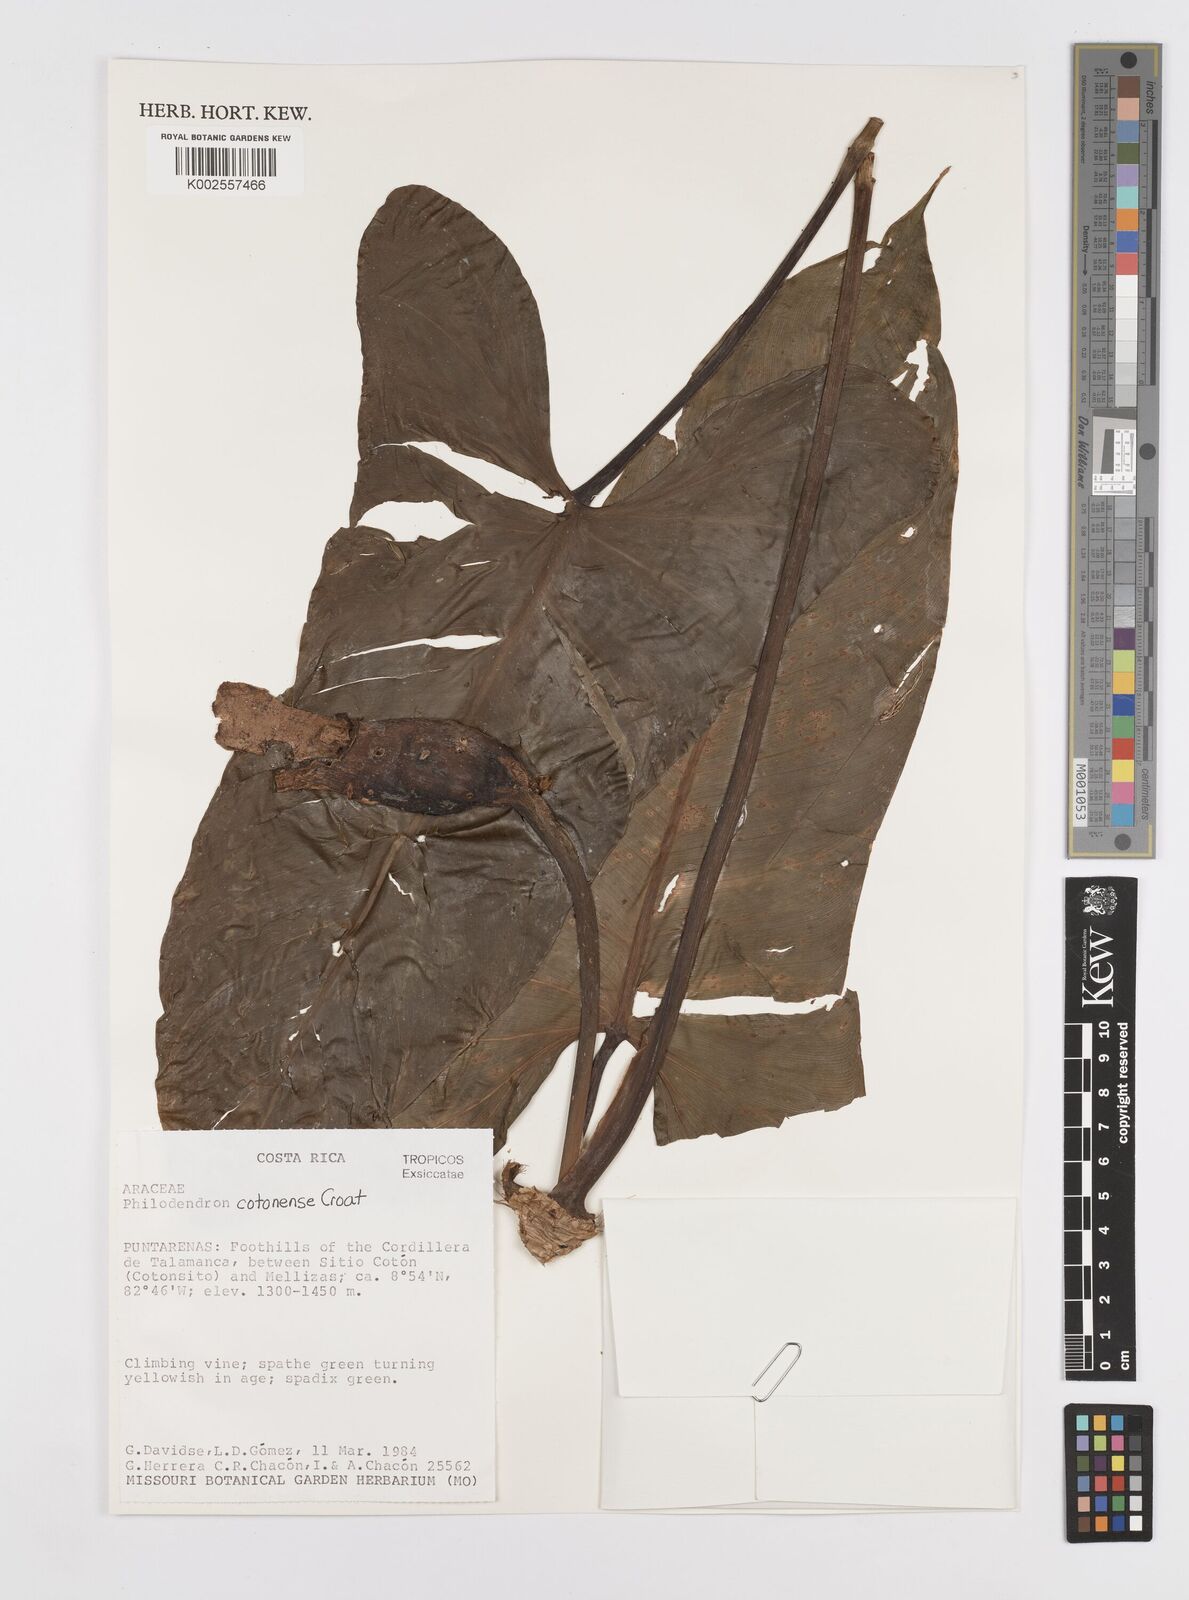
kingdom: Plantae
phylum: Tracheophyta
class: Liliopsida
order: Alismatales
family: Araceae
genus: Philodendron
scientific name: Philodendron cotonense
